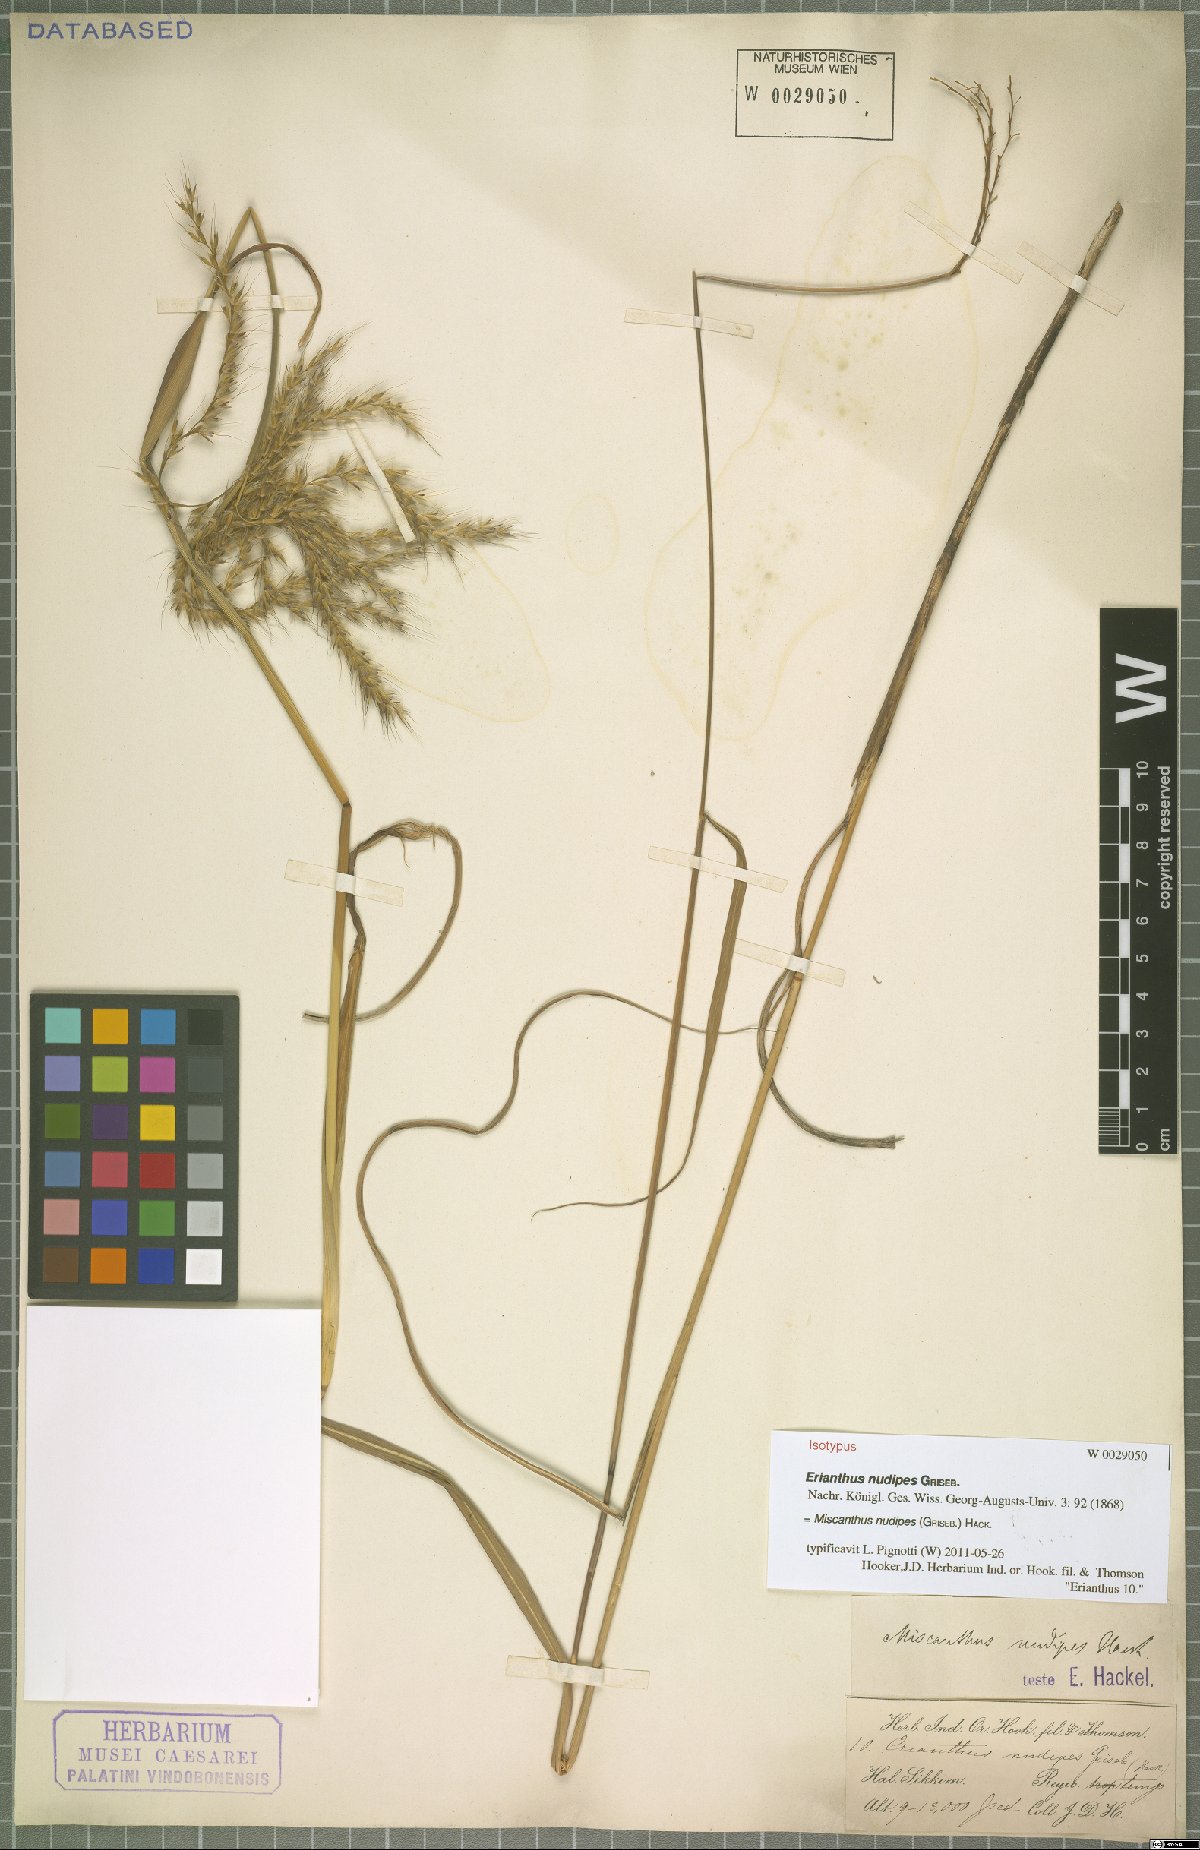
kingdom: Plantae
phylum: Tracheophyta
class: Liliopsida
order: Poales
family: Poaceae
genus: Miscanthus
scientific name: Miscanthus nudipes
